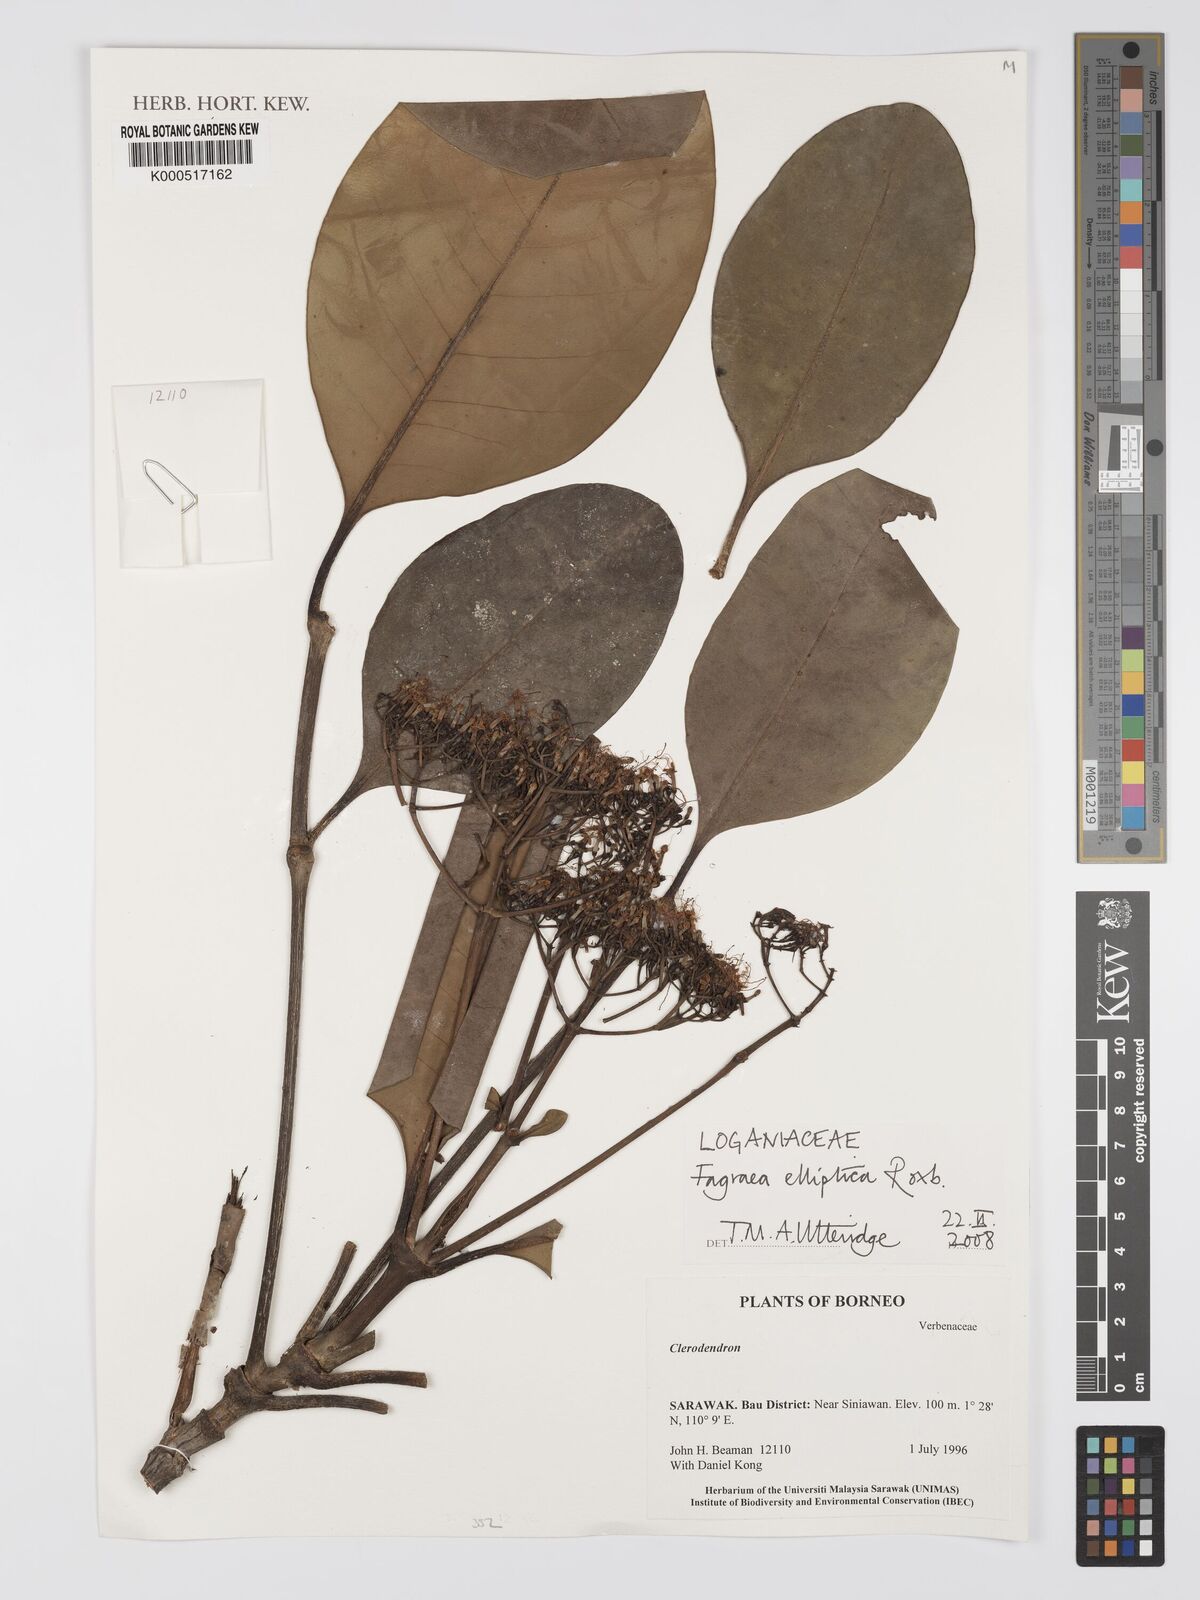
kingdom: Plantae
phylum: Tracheophyta
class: Magnoliopsida
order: Gentianales
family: Gentianaceae
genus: Picrophloeus
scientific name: Picrophloeus javanensis
